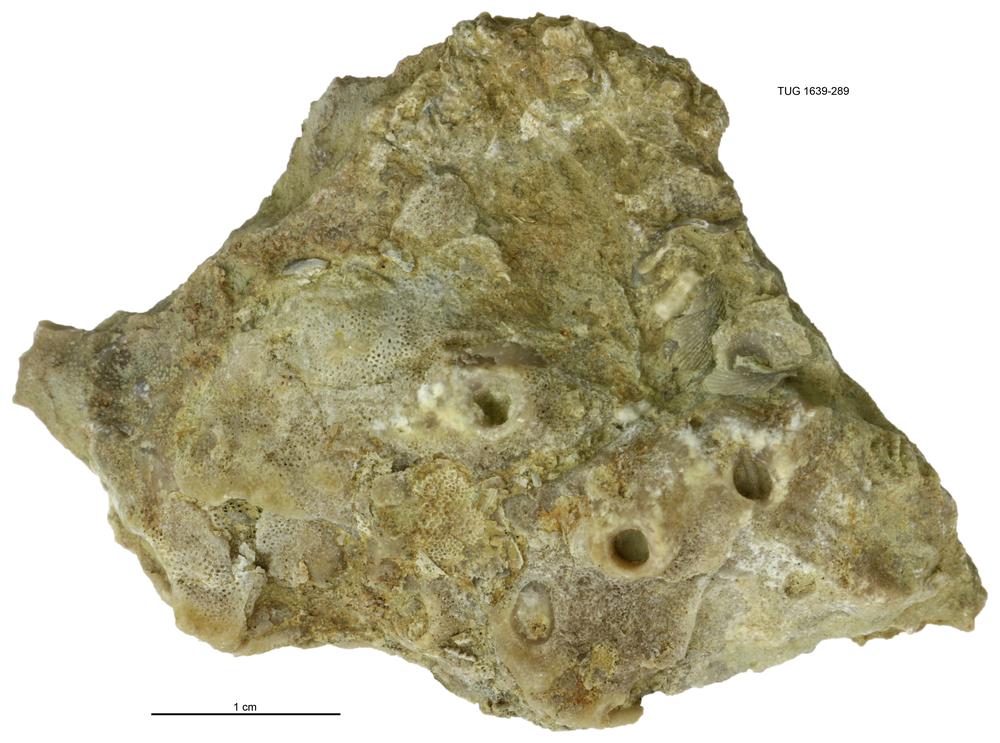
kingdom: Animalia
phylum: Bryozoa
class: Stenolaemata
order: Cystoporida
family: Fistuliporidae
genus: Fistulipora
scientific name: Fistulipora
